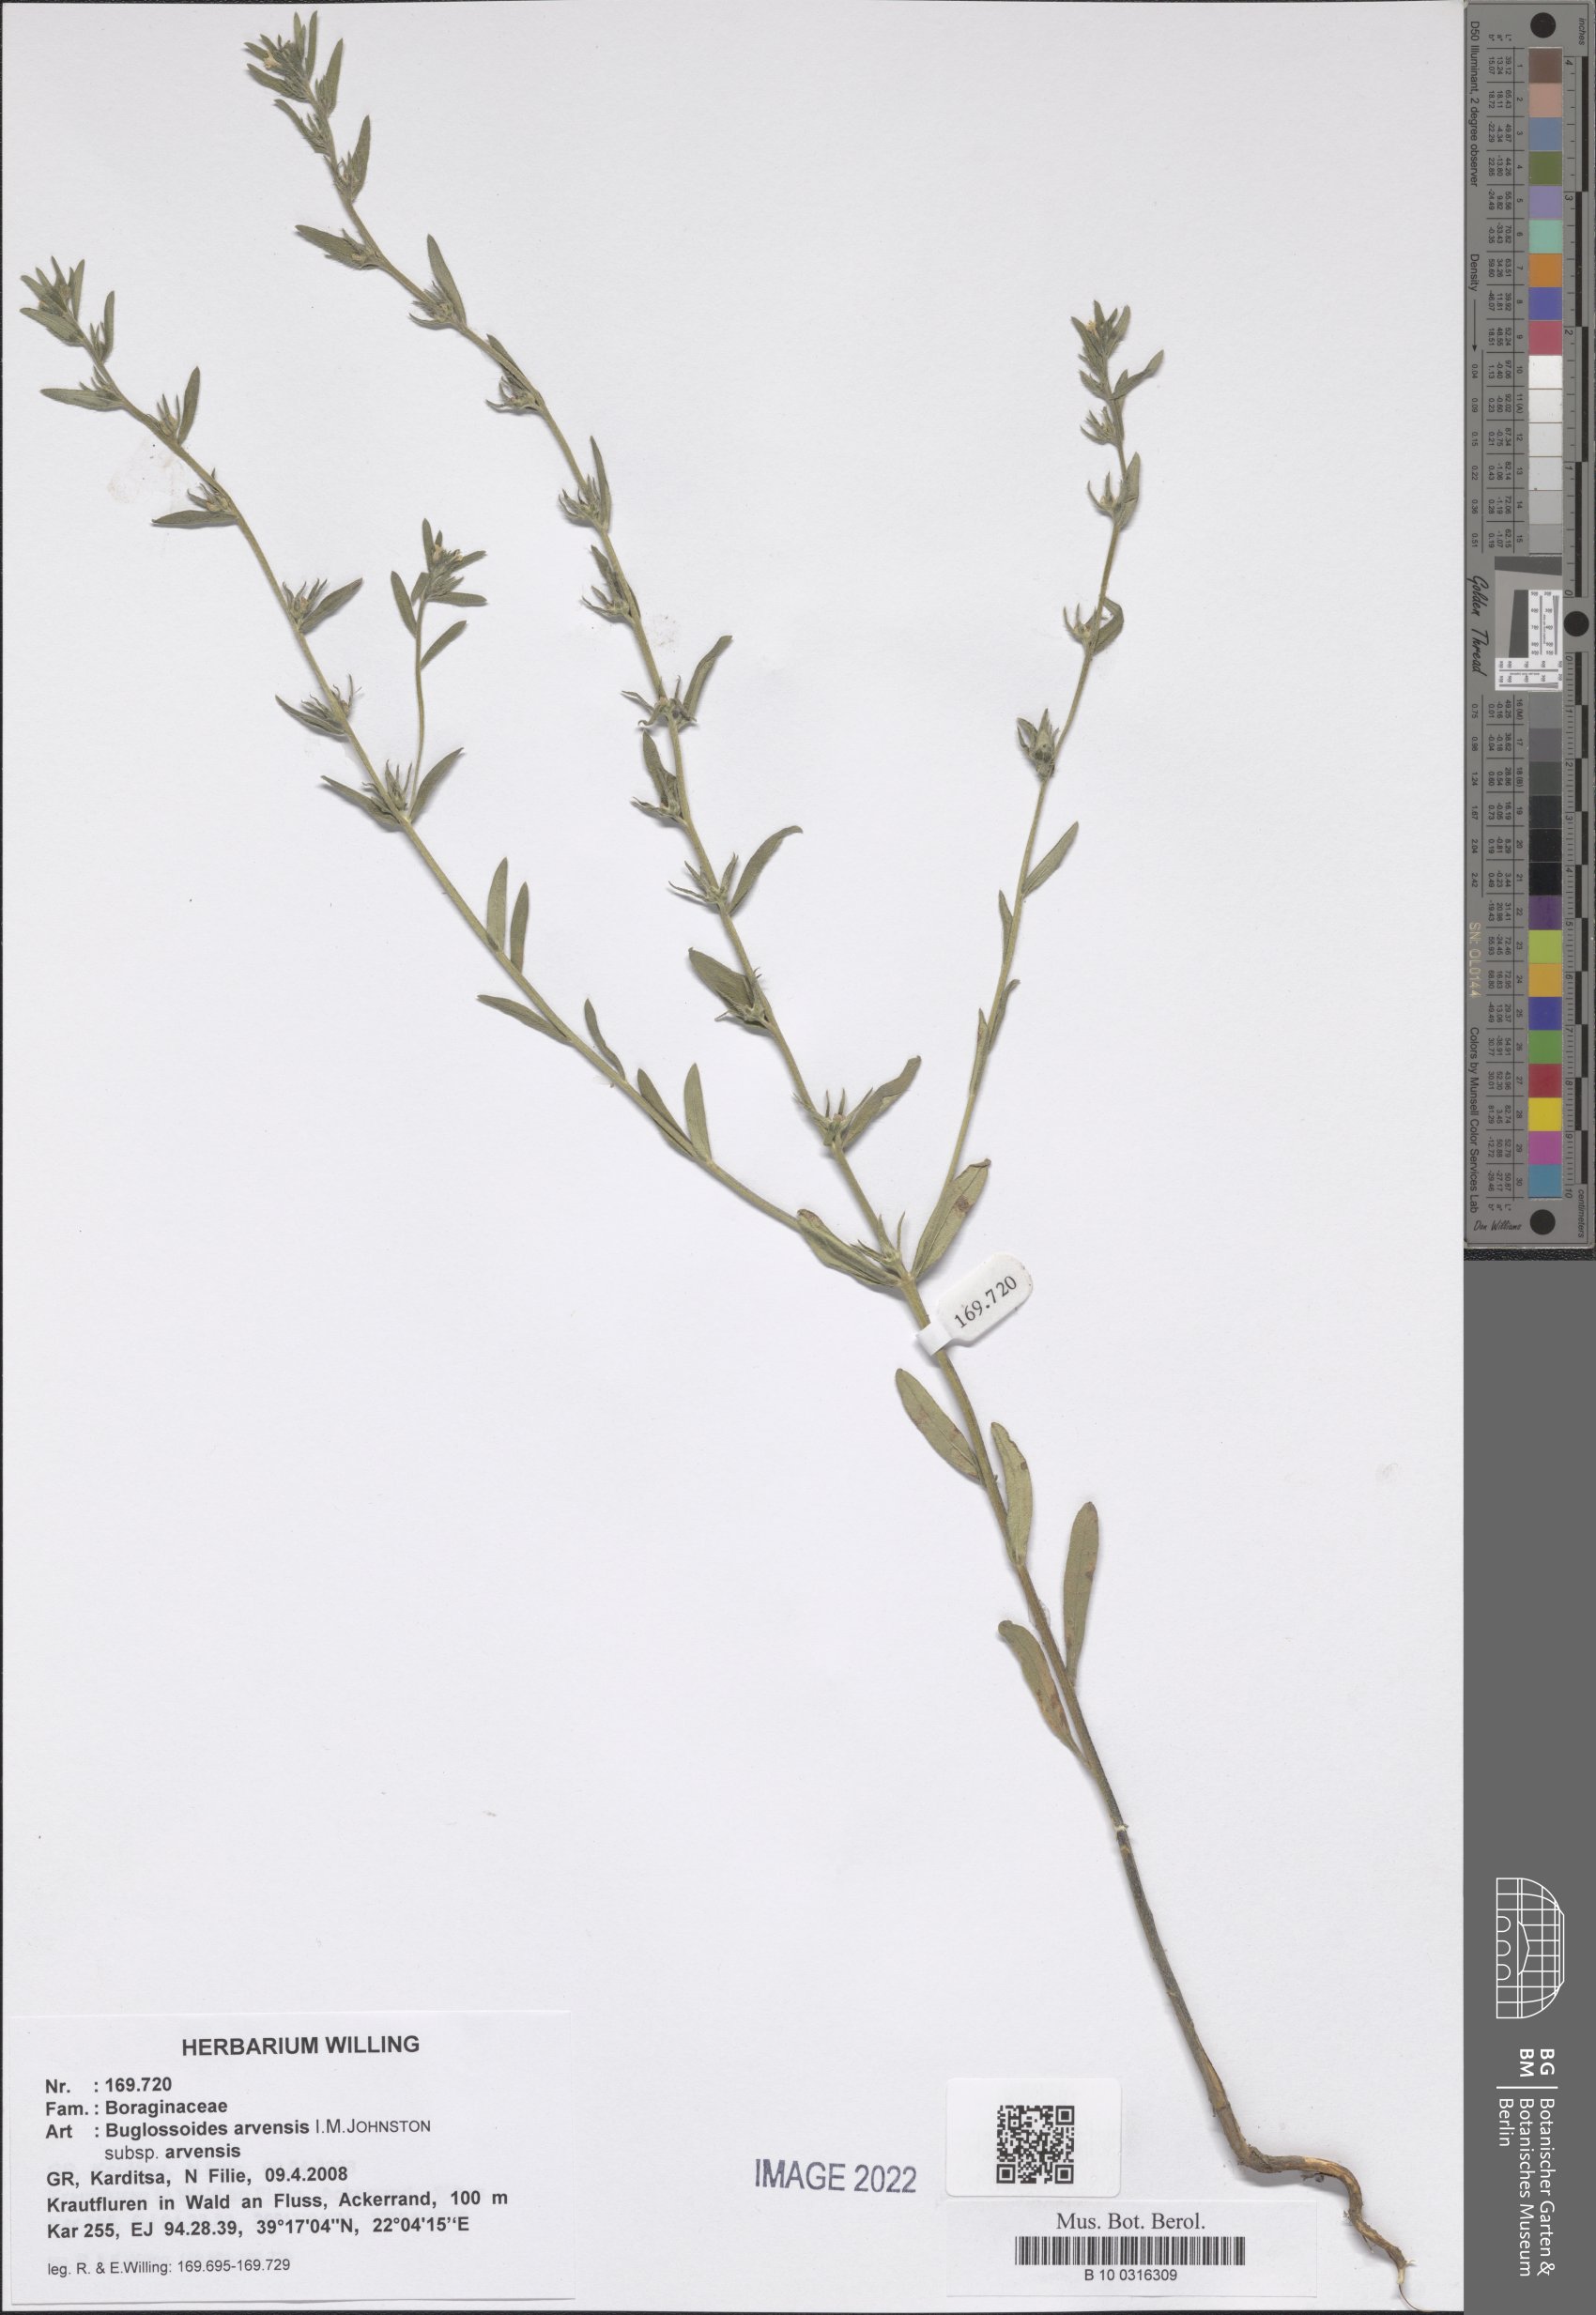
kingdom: Plantae
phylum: Tracheophyta
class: Magnoliopsida
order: Boraginales
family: Boraginaceae
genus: Buglossoides
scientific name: Buglossoides arvensis
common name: Corn gromwell
